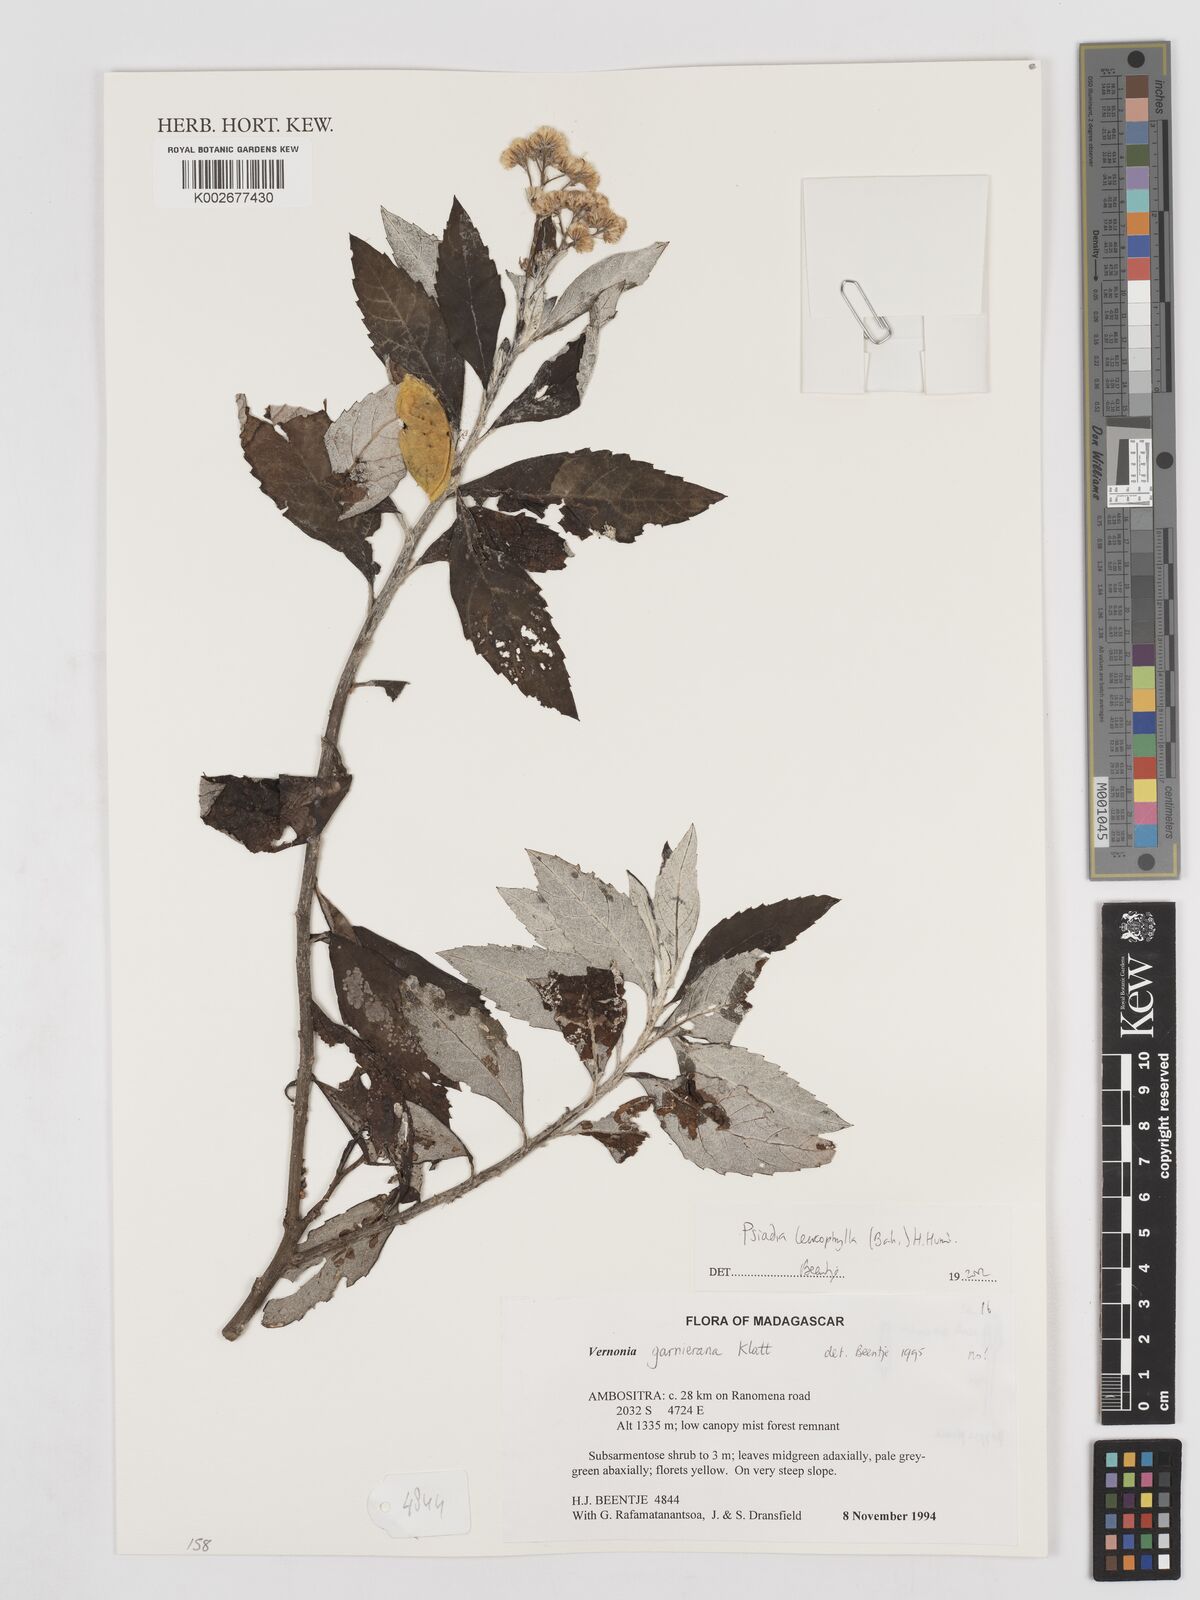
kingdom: Plantae
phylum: Tracheophyta
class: Magnoliopsida
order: Asterales
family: Asteraceae
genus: Psiadia
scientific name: Psiadia leucophylla
